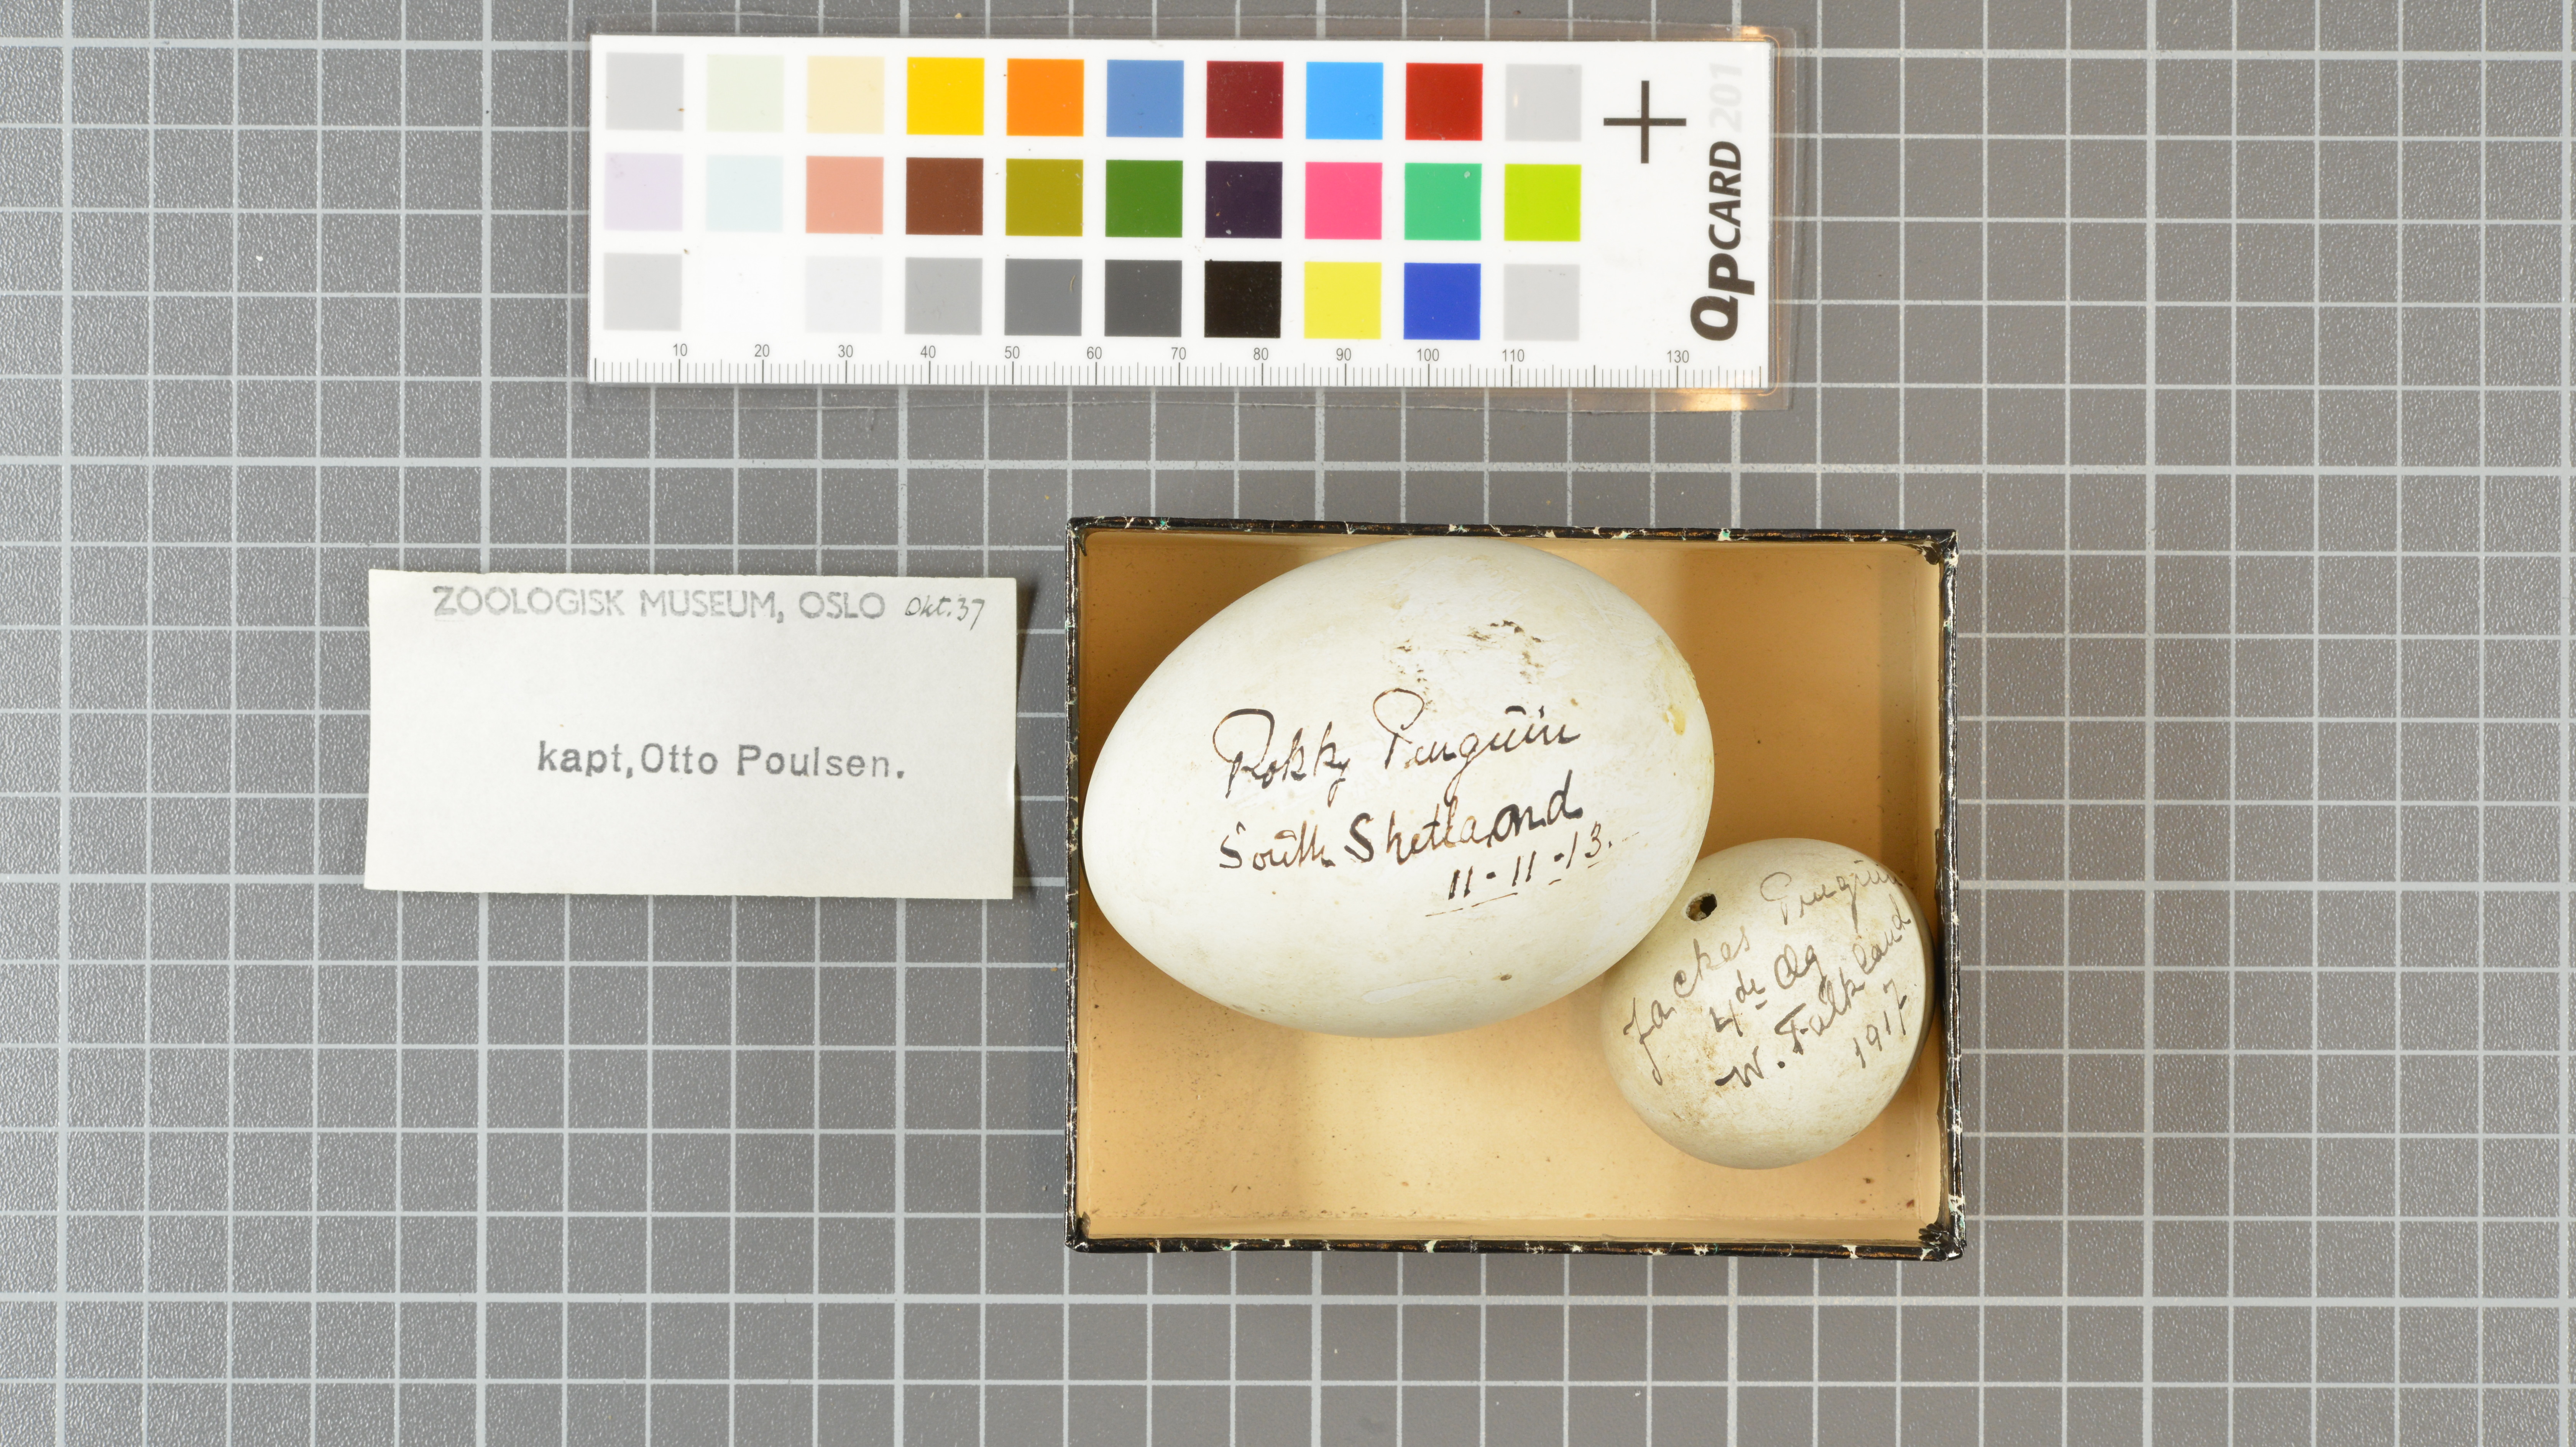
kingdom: Animalia
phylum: Chordata
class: Aves
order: Sphenisciformes
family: Spheniscidae
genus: Eudyptes
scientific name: Eudyptes chrysolophus
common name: Macaroni penguin
